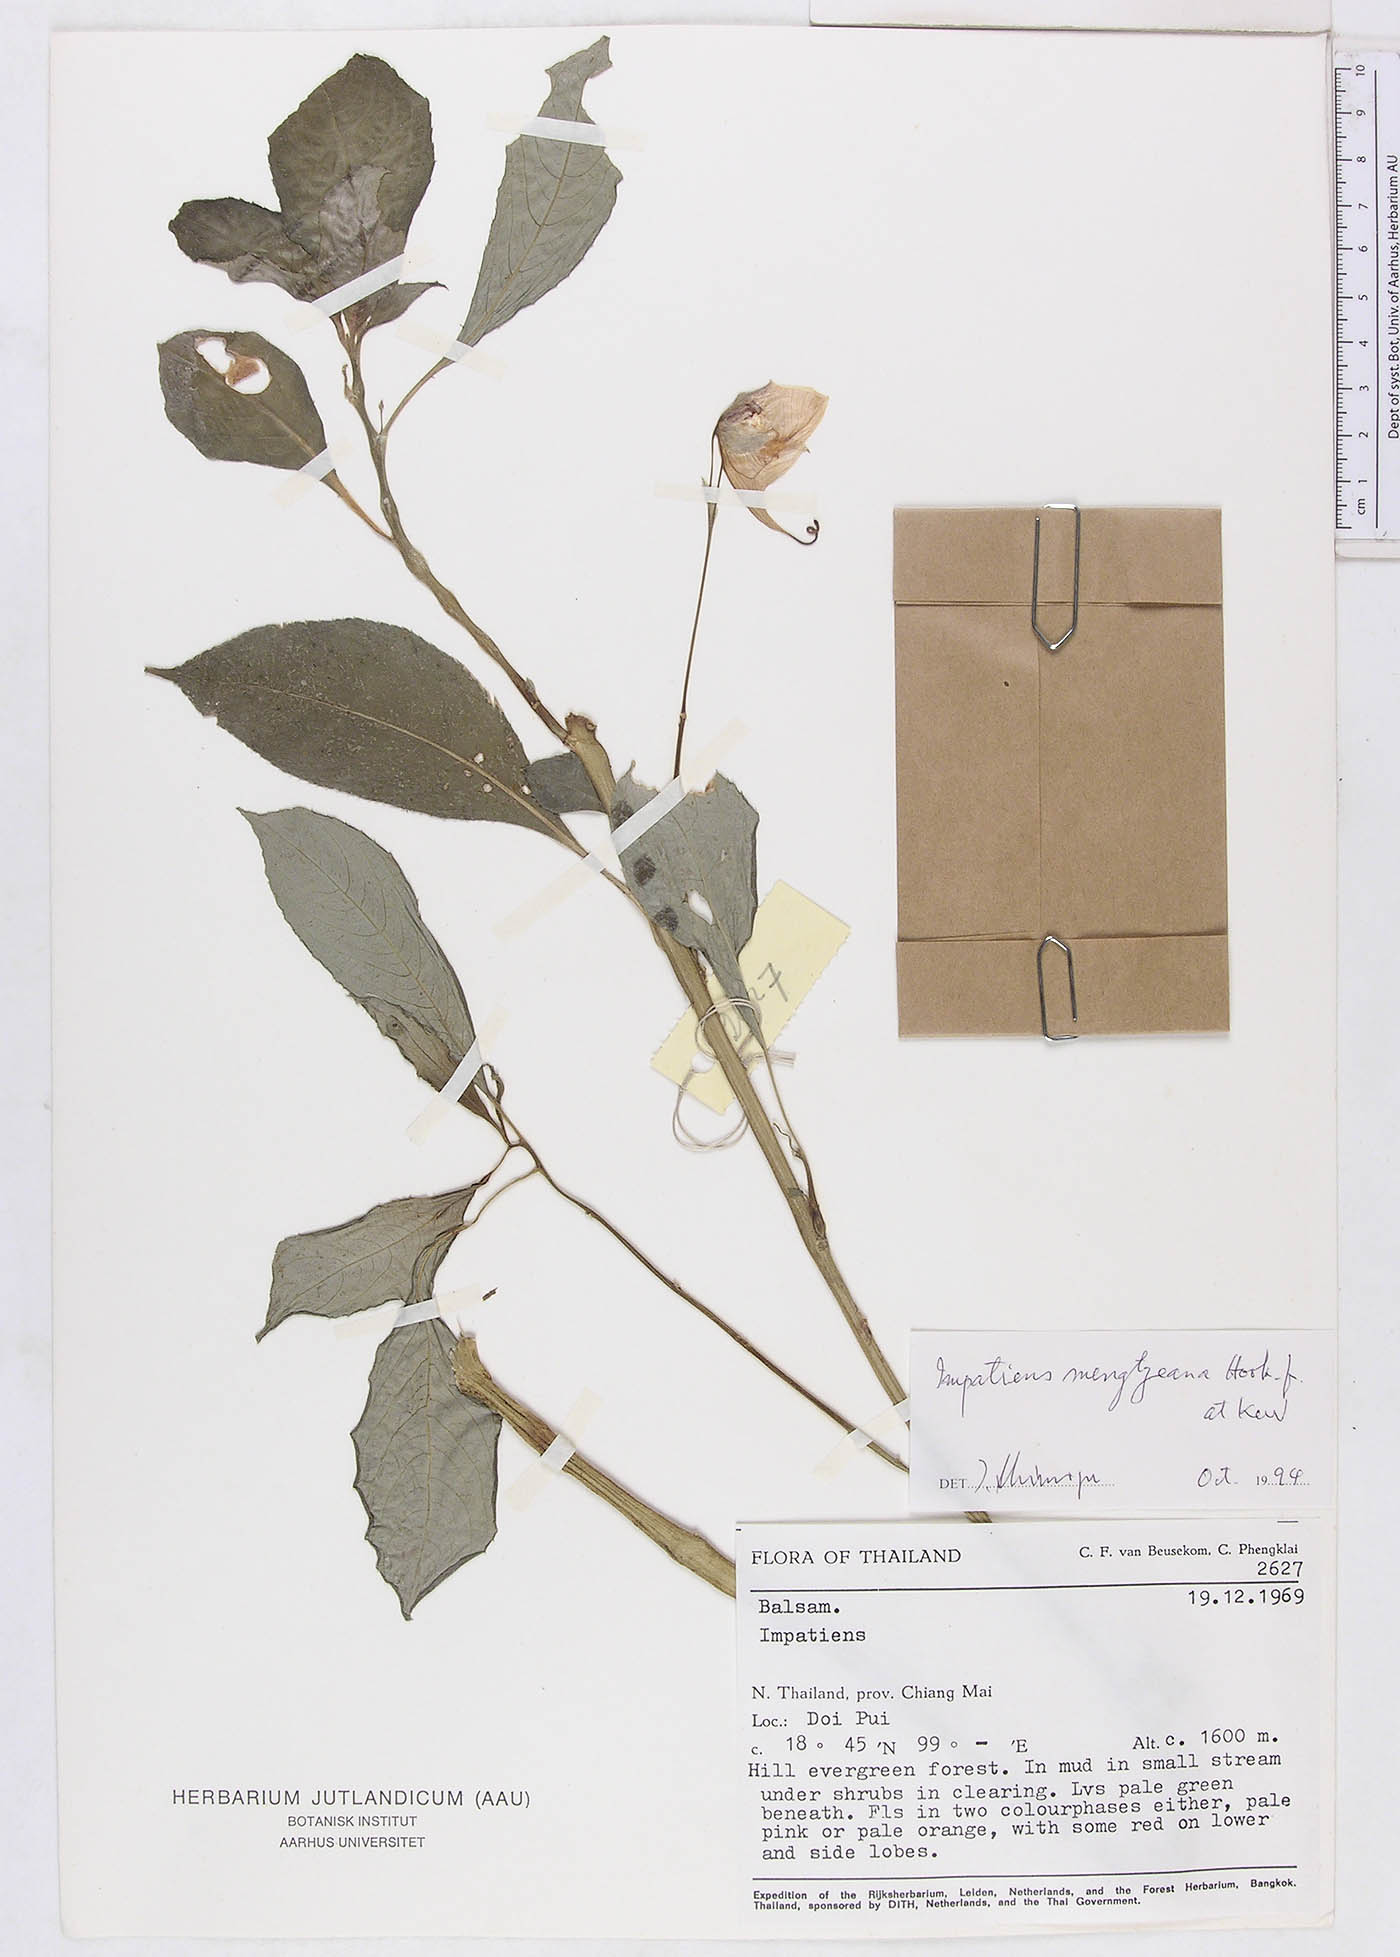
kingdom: Plantae
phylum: Tracheophyta
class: Magnoliopsida
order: Ericales
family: Balsaminaceae
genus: Impatiens
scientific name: Impatiens pulchra
